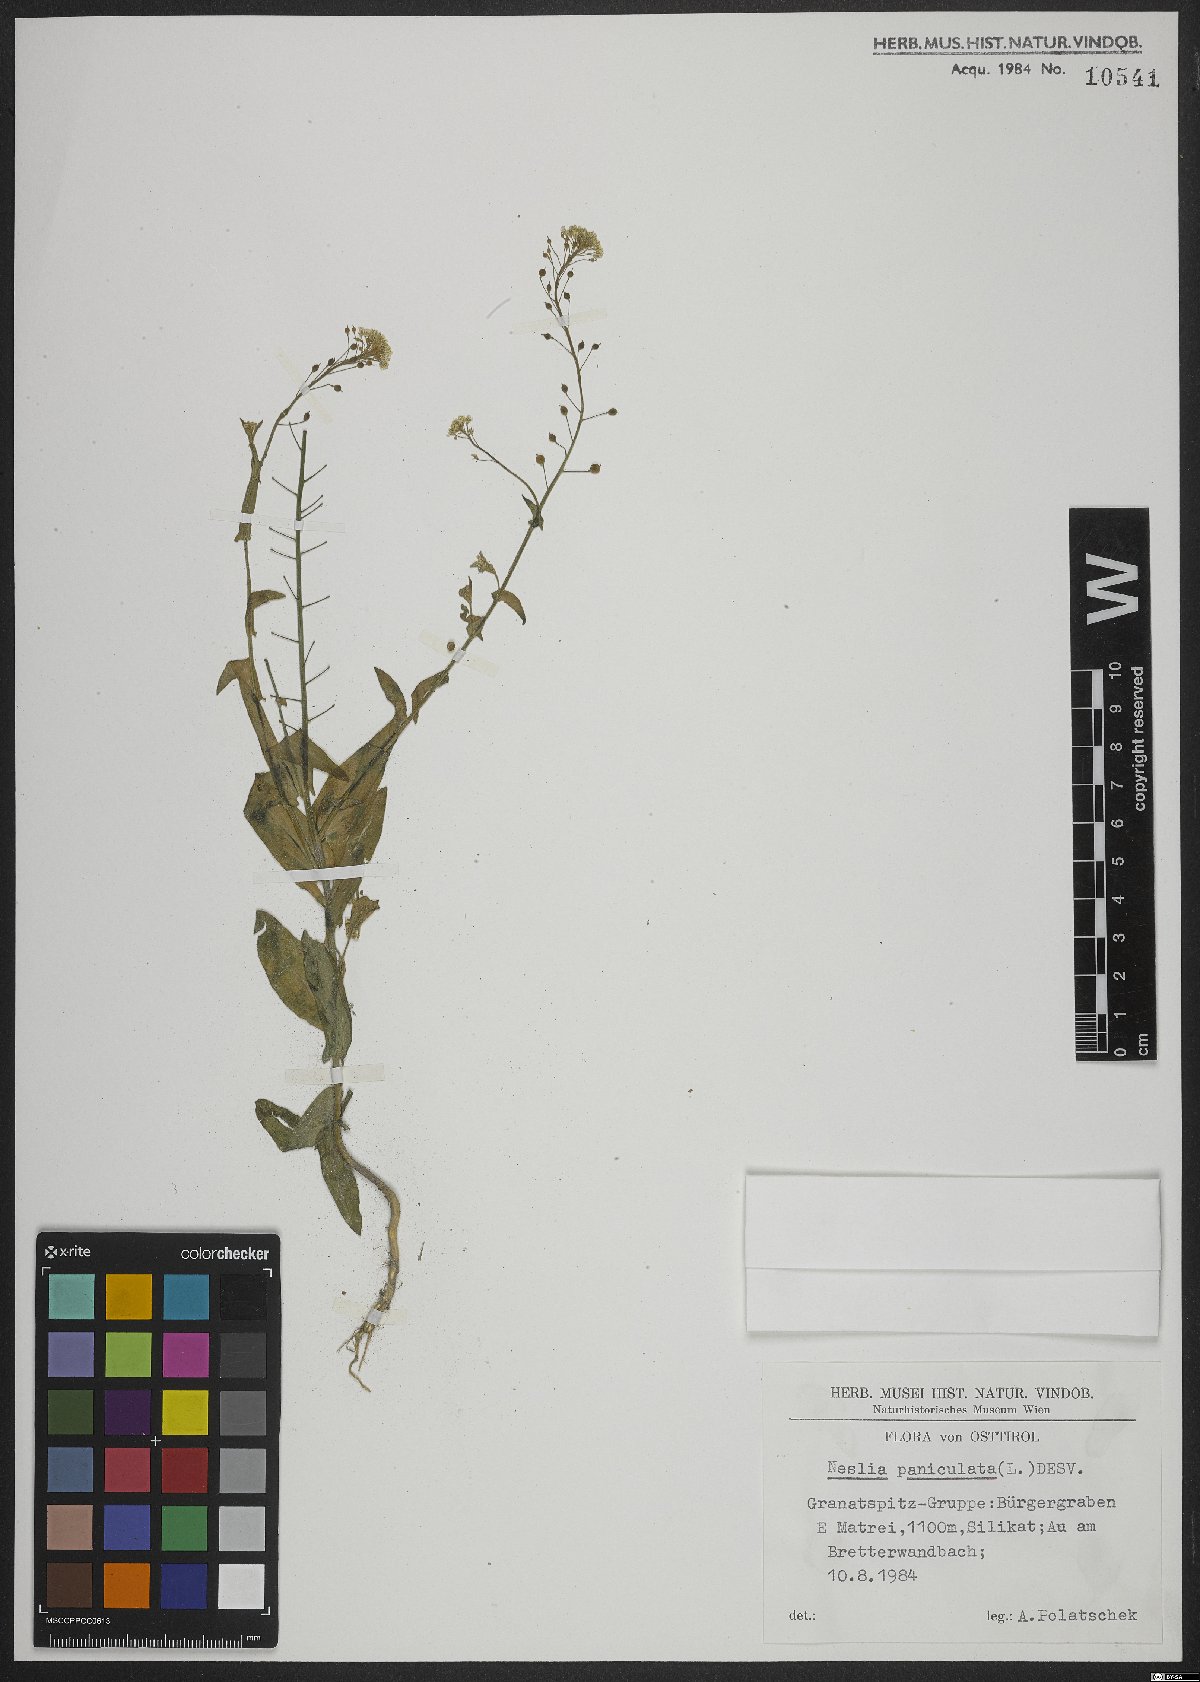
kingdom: Plantae
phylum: Tracheophyta
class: Magnoliopsida
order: Brassicales
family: Brassicaceae
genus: Neslia
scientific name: Neslia paniculata
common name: Ball mustard
